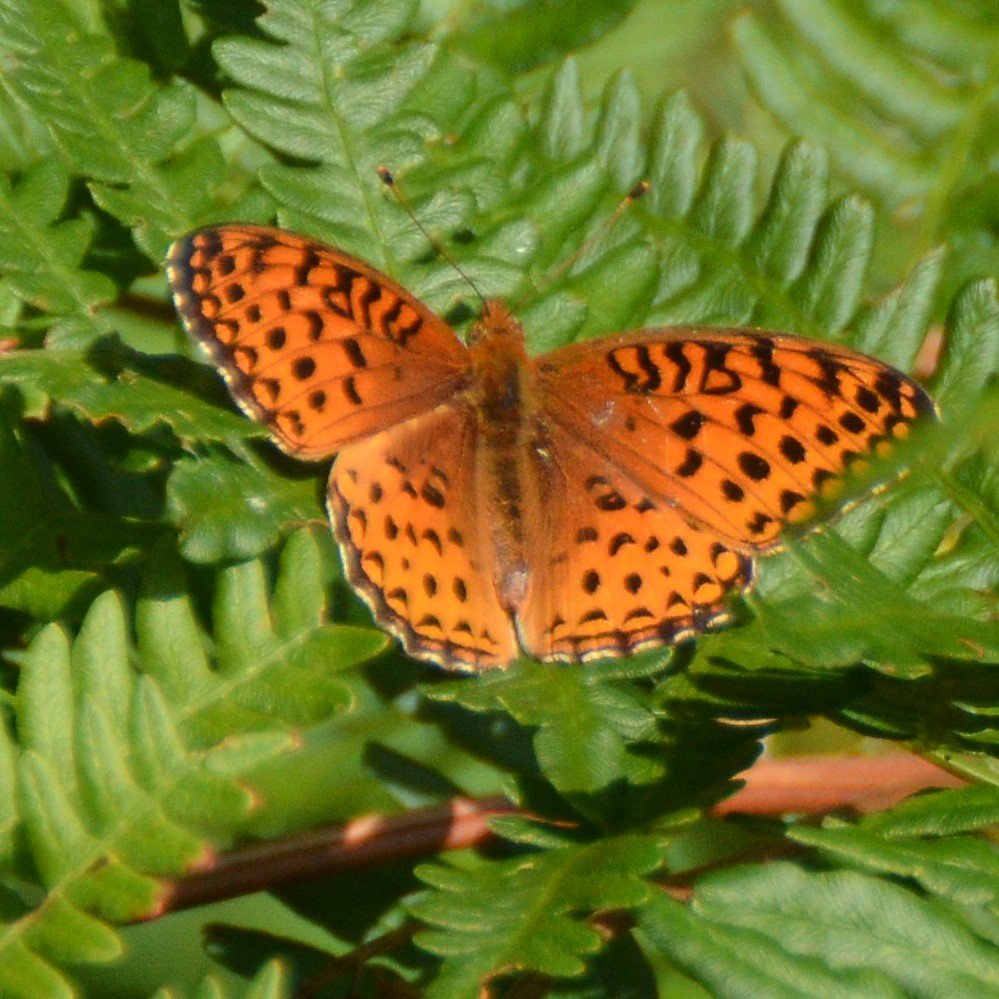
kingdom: Animalia
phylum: Arthropoda
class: Insecta
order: Lepidoptera
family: Nymphalidae
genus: Speyeria
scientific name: Speyeria aphrodite
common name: Aphrodite Fritillary
